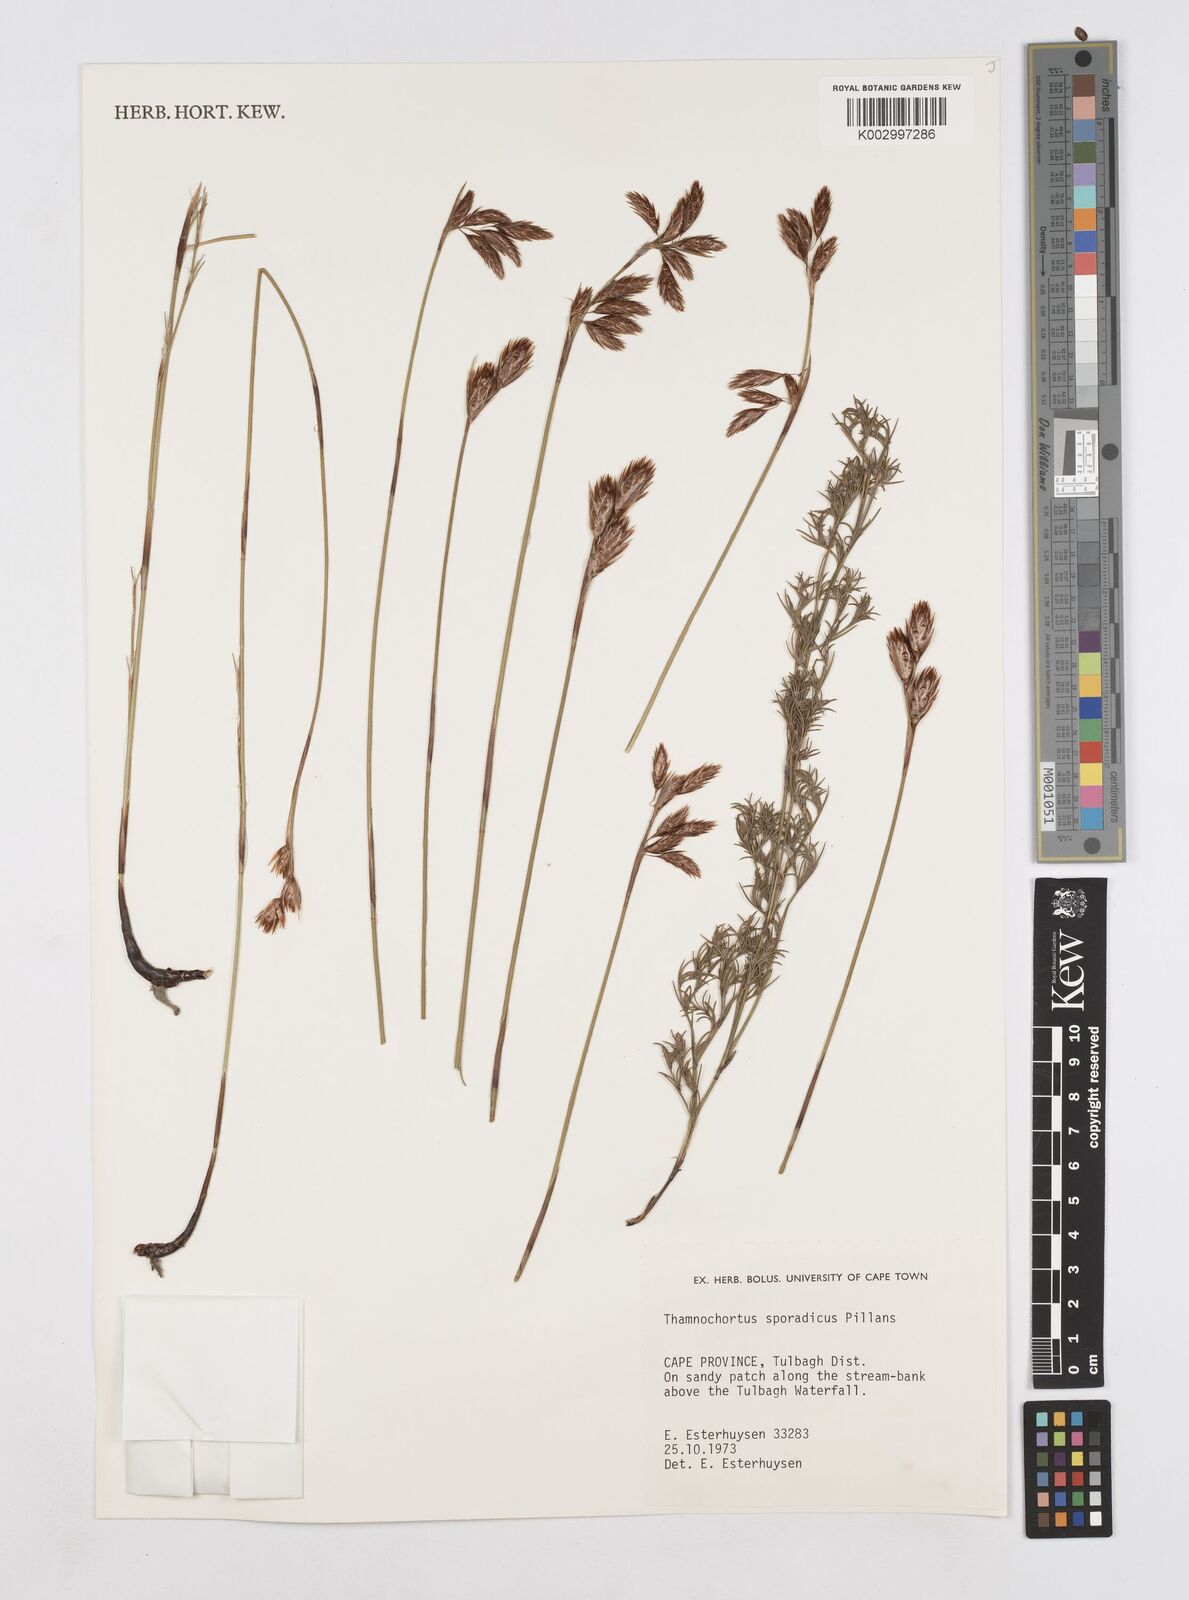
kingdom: Plantae
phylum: Tracheophyta
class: Liliopsida
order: Poales
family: Restionaceae
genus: Thamnochortus
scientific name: Thamnochortus sporadicus
